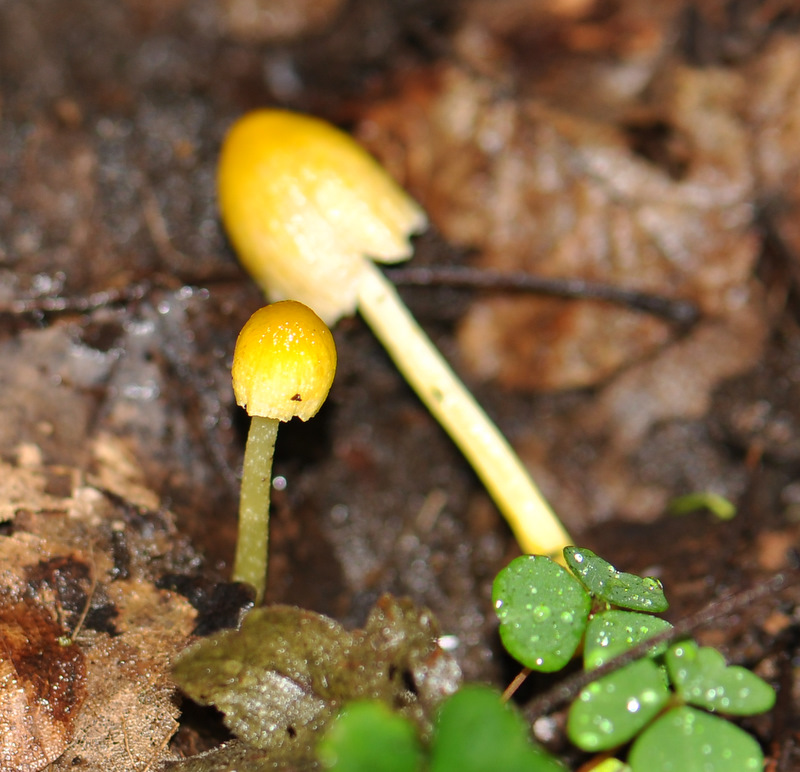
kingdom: Fungi
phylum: Basidiomycota
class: Agaricomycetes
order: Agaricales
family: Bolbitiaceae
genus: Bolbitius
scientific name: Bolbitius titubans
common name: almindelig gulhat
